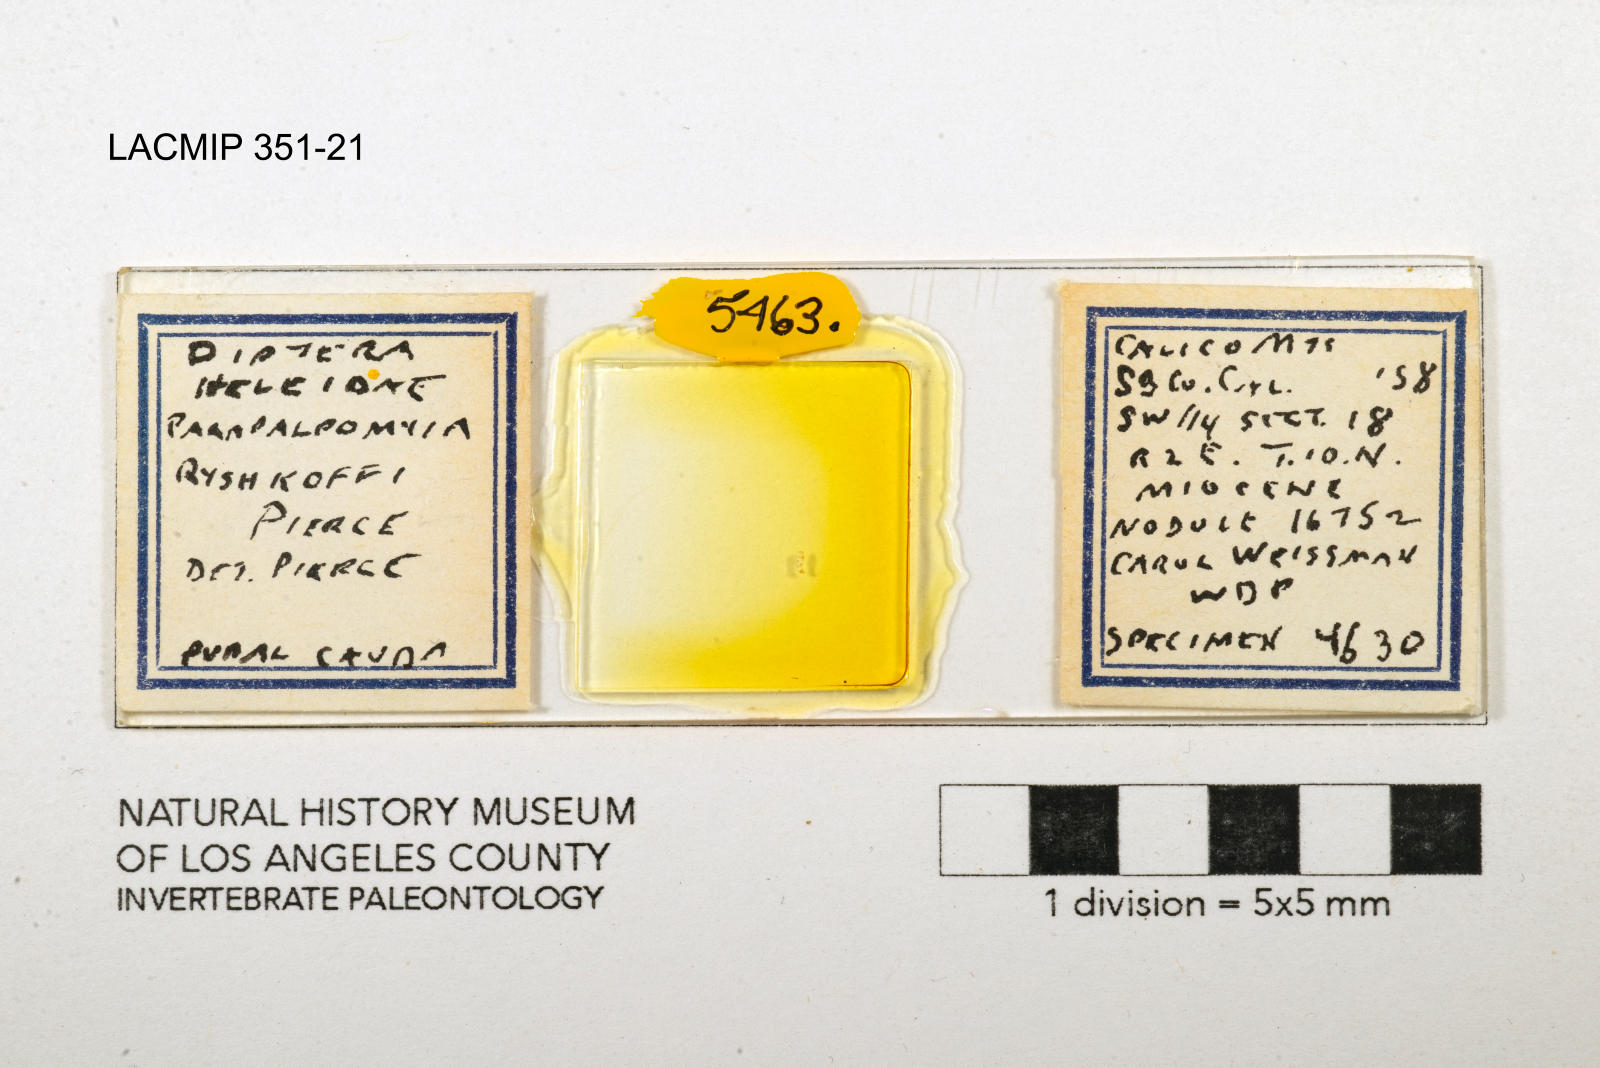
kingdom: Animalia
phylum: Arthropoda
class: Insecta
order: Diptera
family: Ceratopogonidae
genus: Palpomyia
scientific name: Palpomyia ryshkoffi
